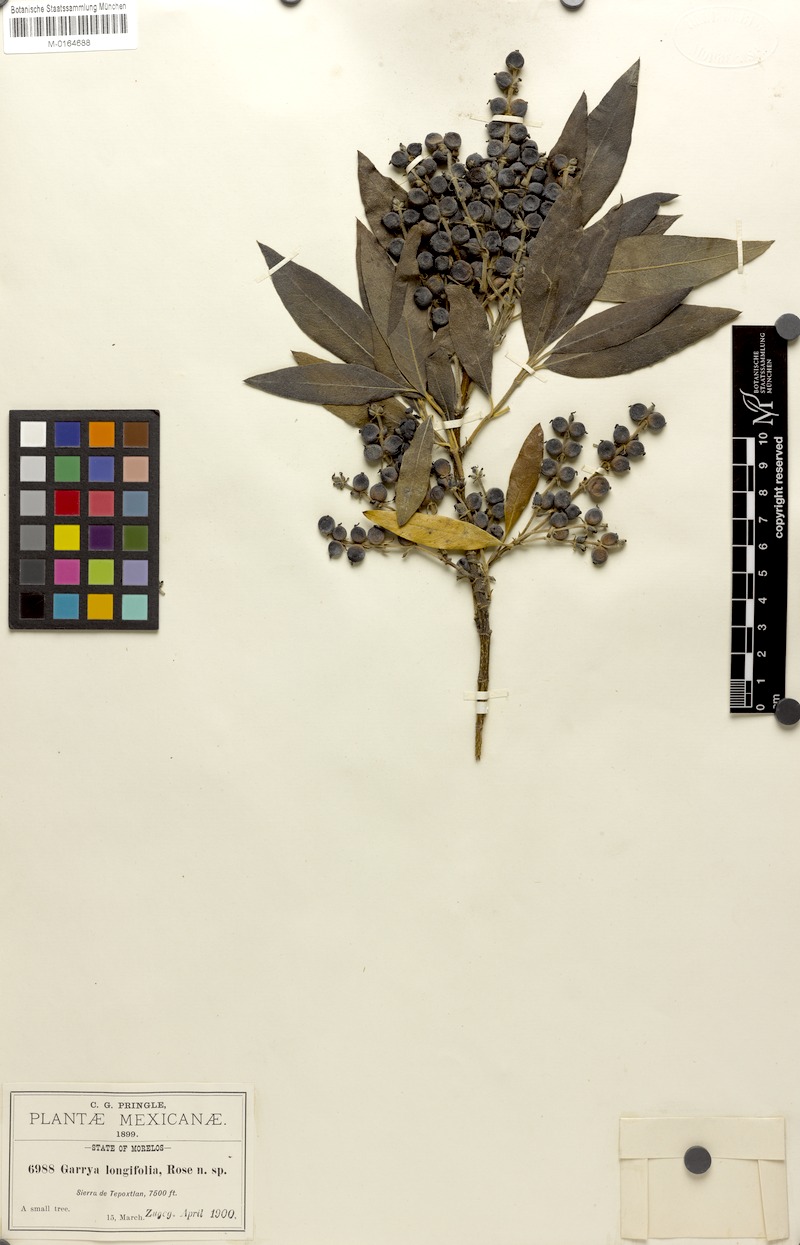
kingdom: Plantae
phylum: Tracheophyta
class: Magnoliopsida
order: Garryales
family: Garryaceae
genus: Garrya
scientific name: Garrya longifolia
